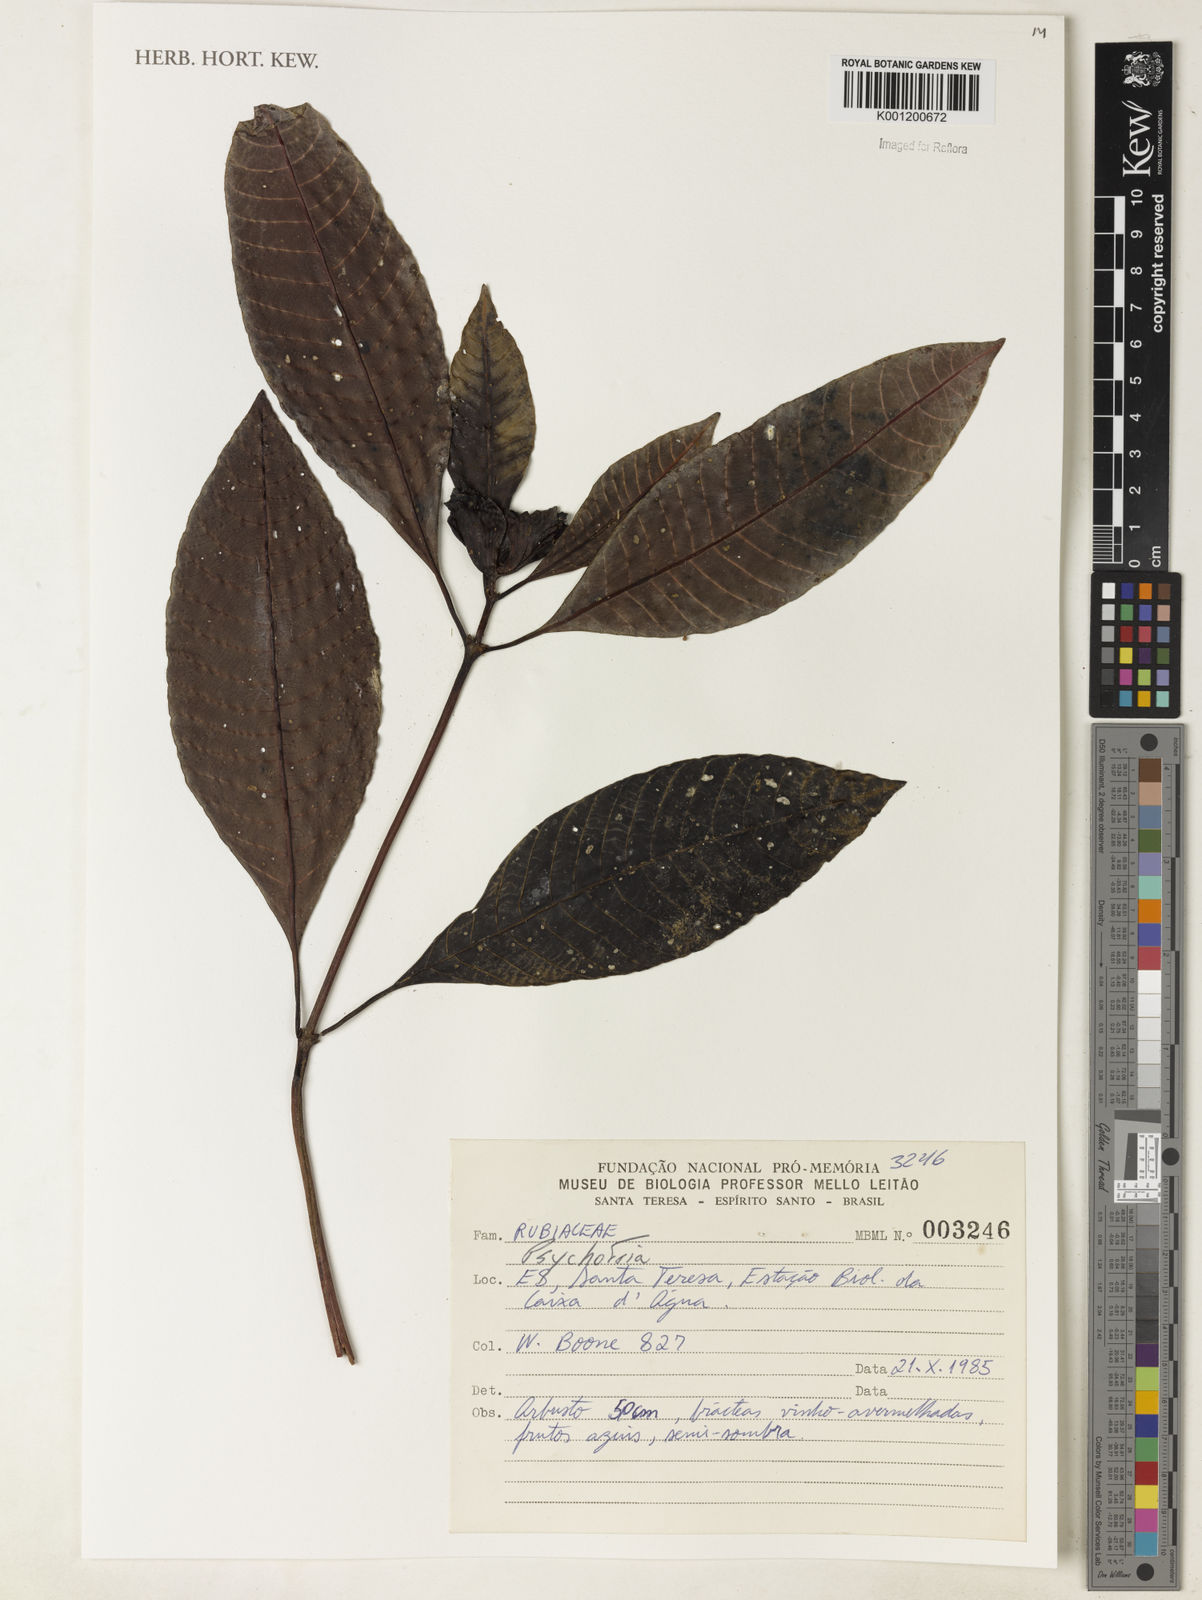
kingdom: Plantae
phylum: Tracheophyta
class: Magnoliopsida
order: Gentianales
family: Rubiaceae
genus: Psychotria
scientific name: Psychotria
